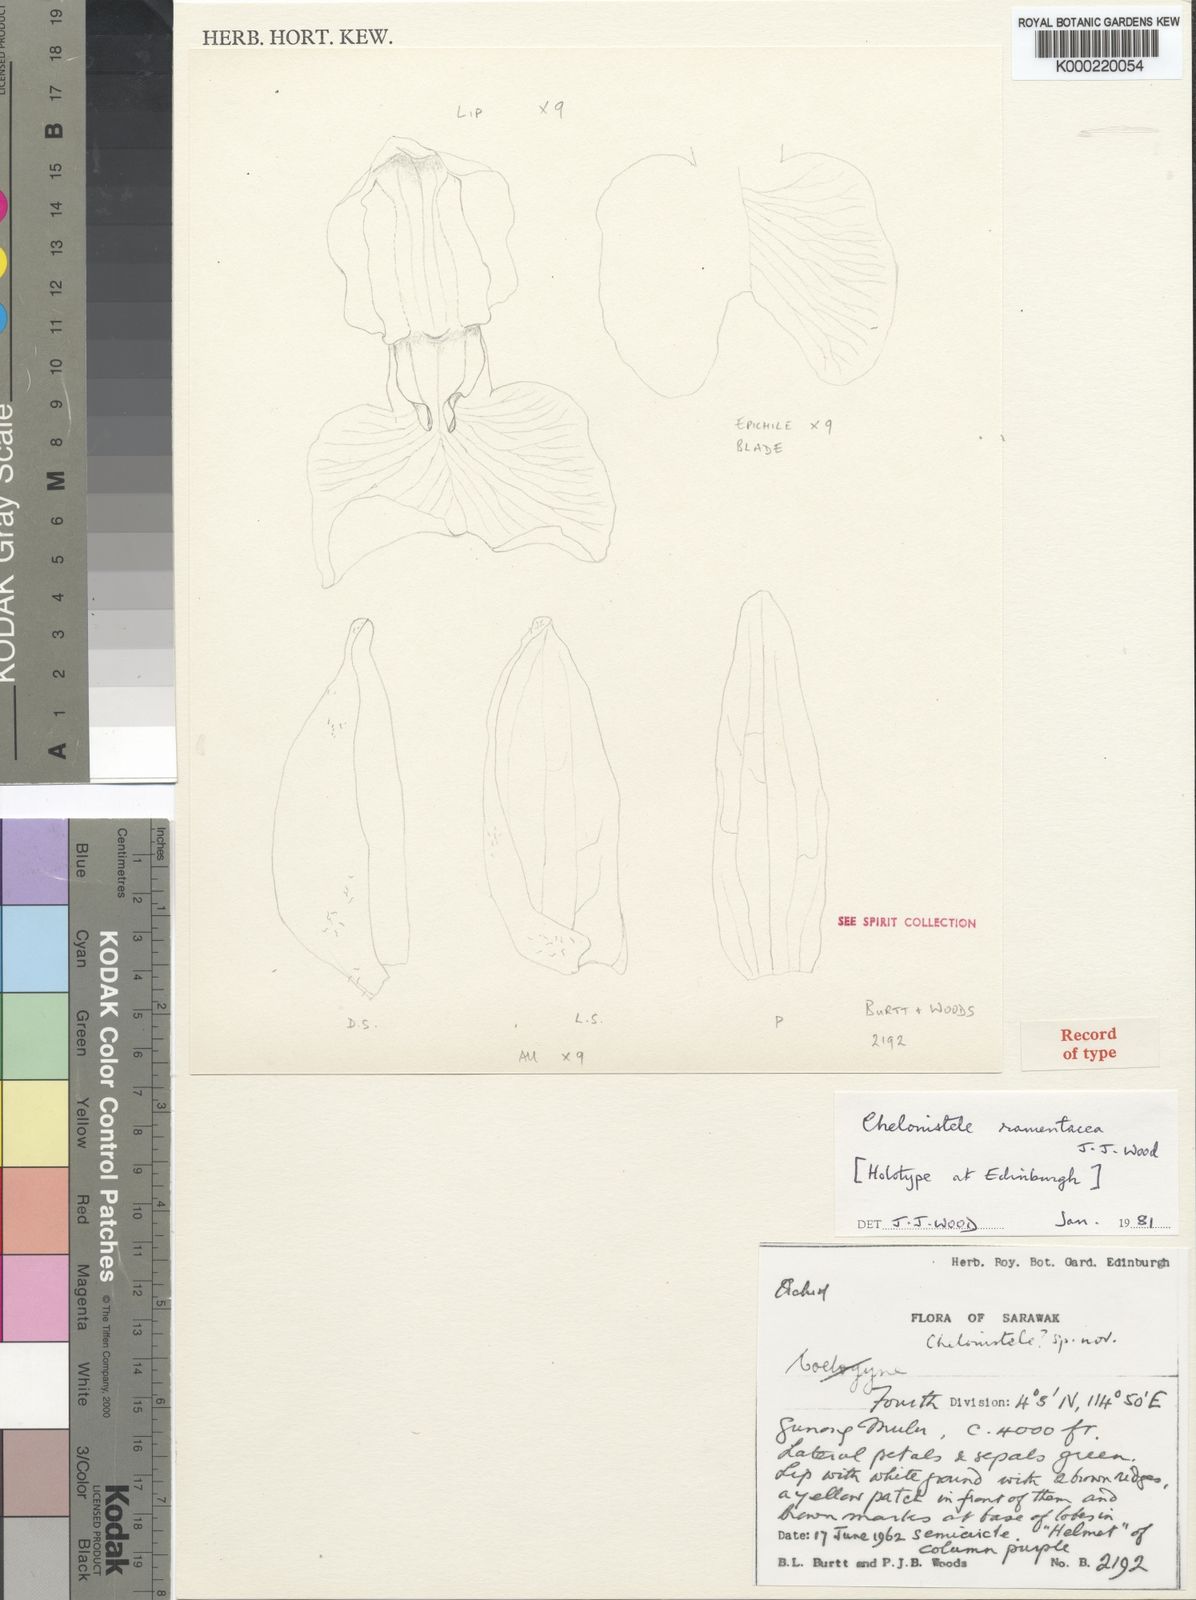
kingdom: Plantae
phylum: Tracheophyta
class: Liliopsida
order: Asparagales
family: Orchidaceae
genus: Coelogyne
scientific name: Coelogyne ramentacea
